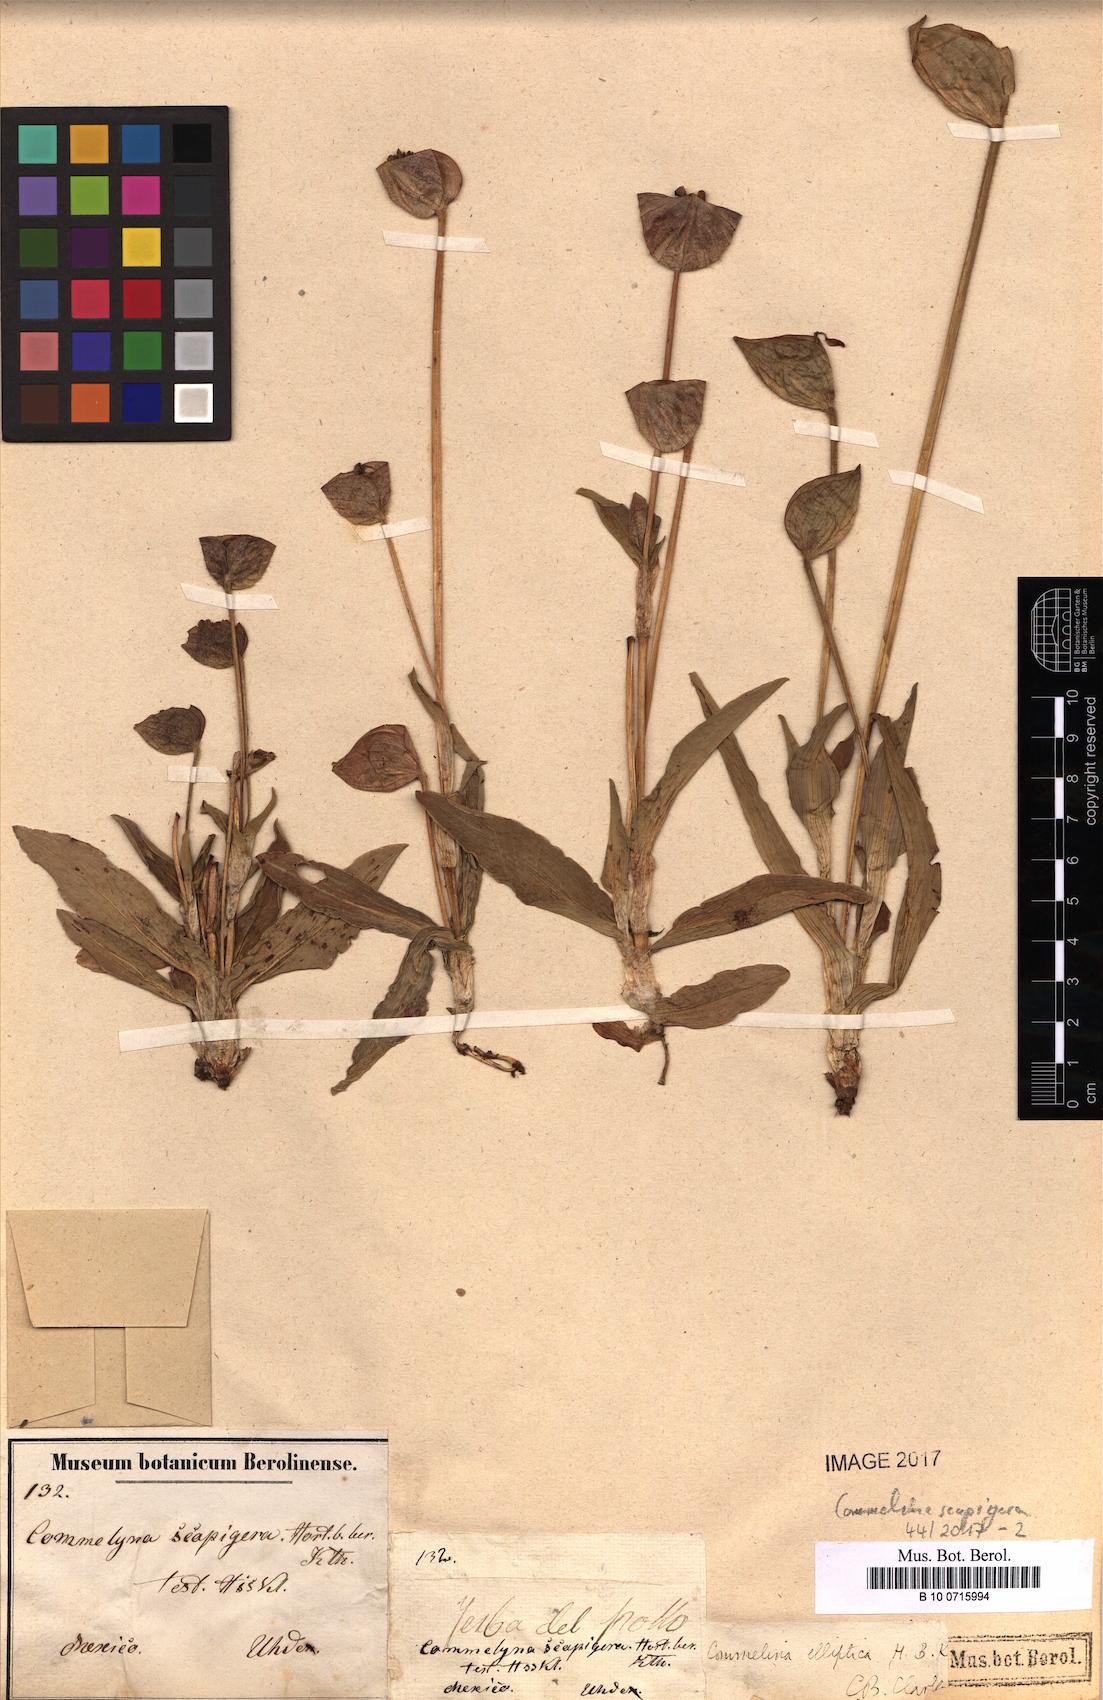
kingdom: Plantae
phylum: Tracheophyta
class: Liliopsida
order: Commelinales
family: Commelinaceae
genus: Commelina
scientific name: Commelina tuberosa
